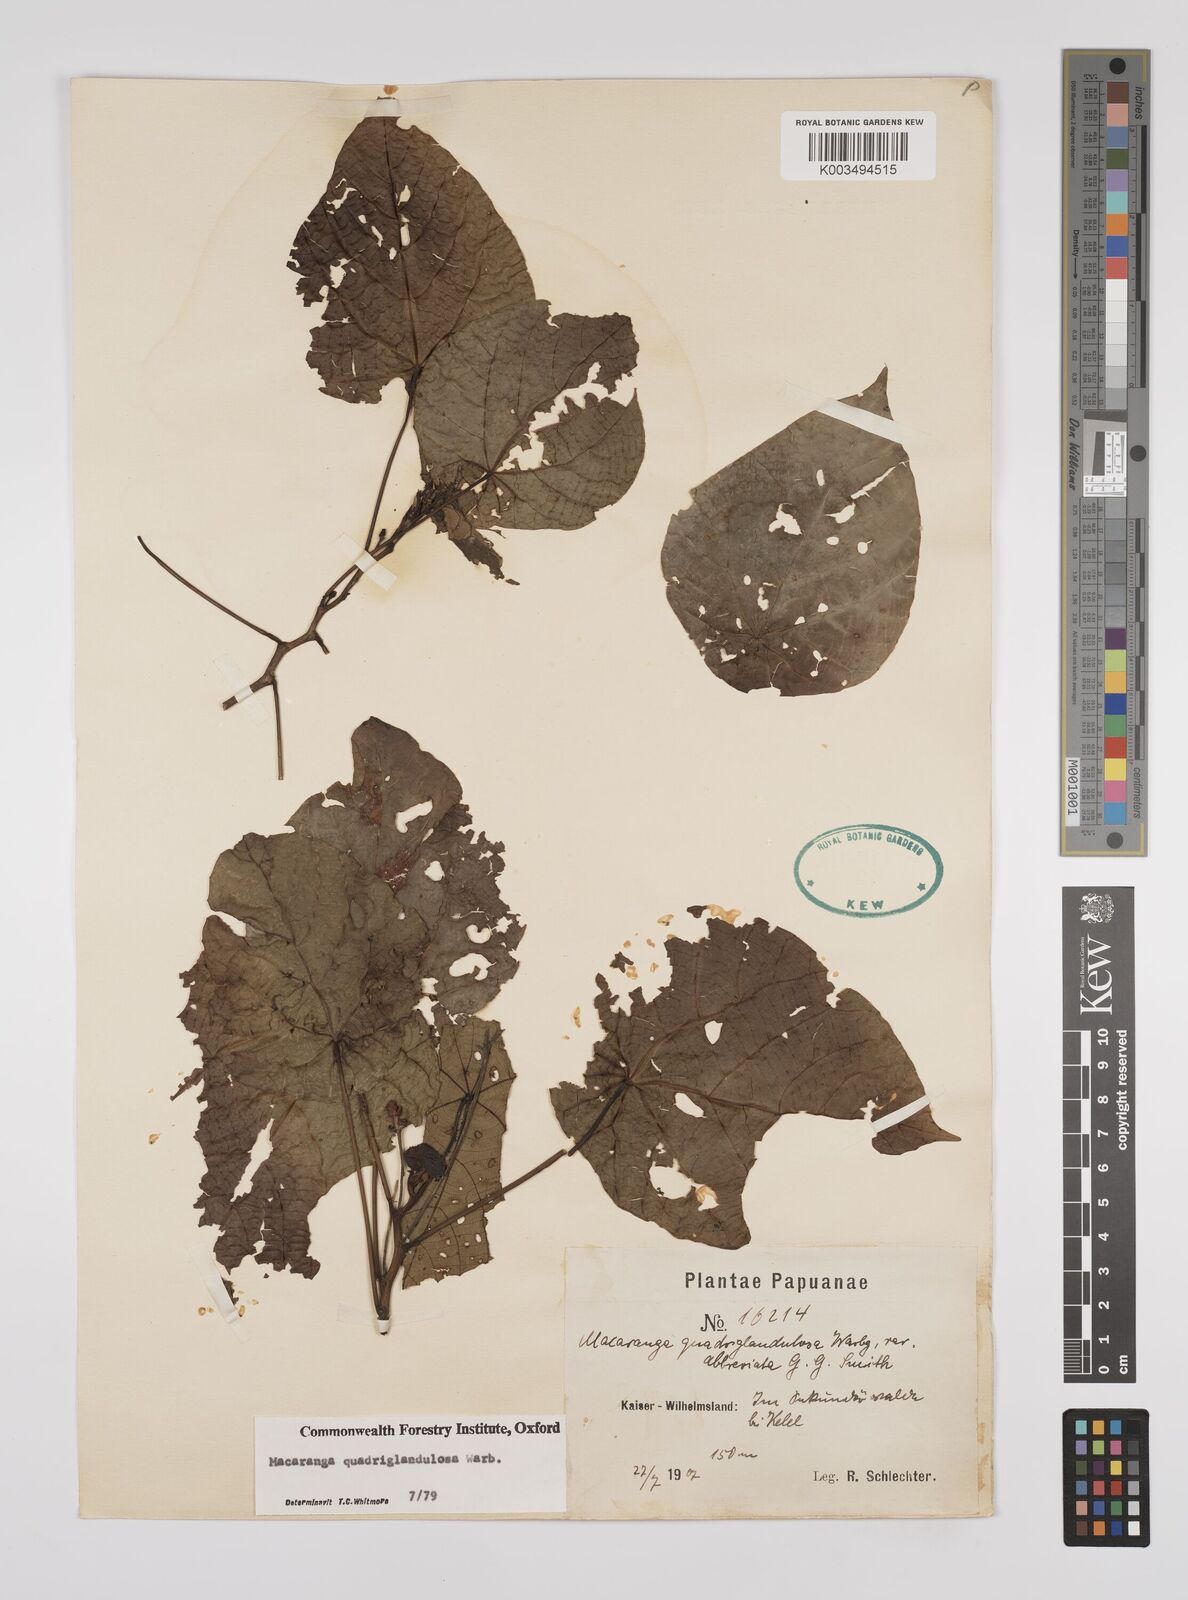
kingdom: Plantae
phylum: Tracheophyta
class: Magnoliopsida
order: Malpighiales
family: Euphorbiaceae
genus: Macaranga
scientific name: Macaranga quadriglandulosa
